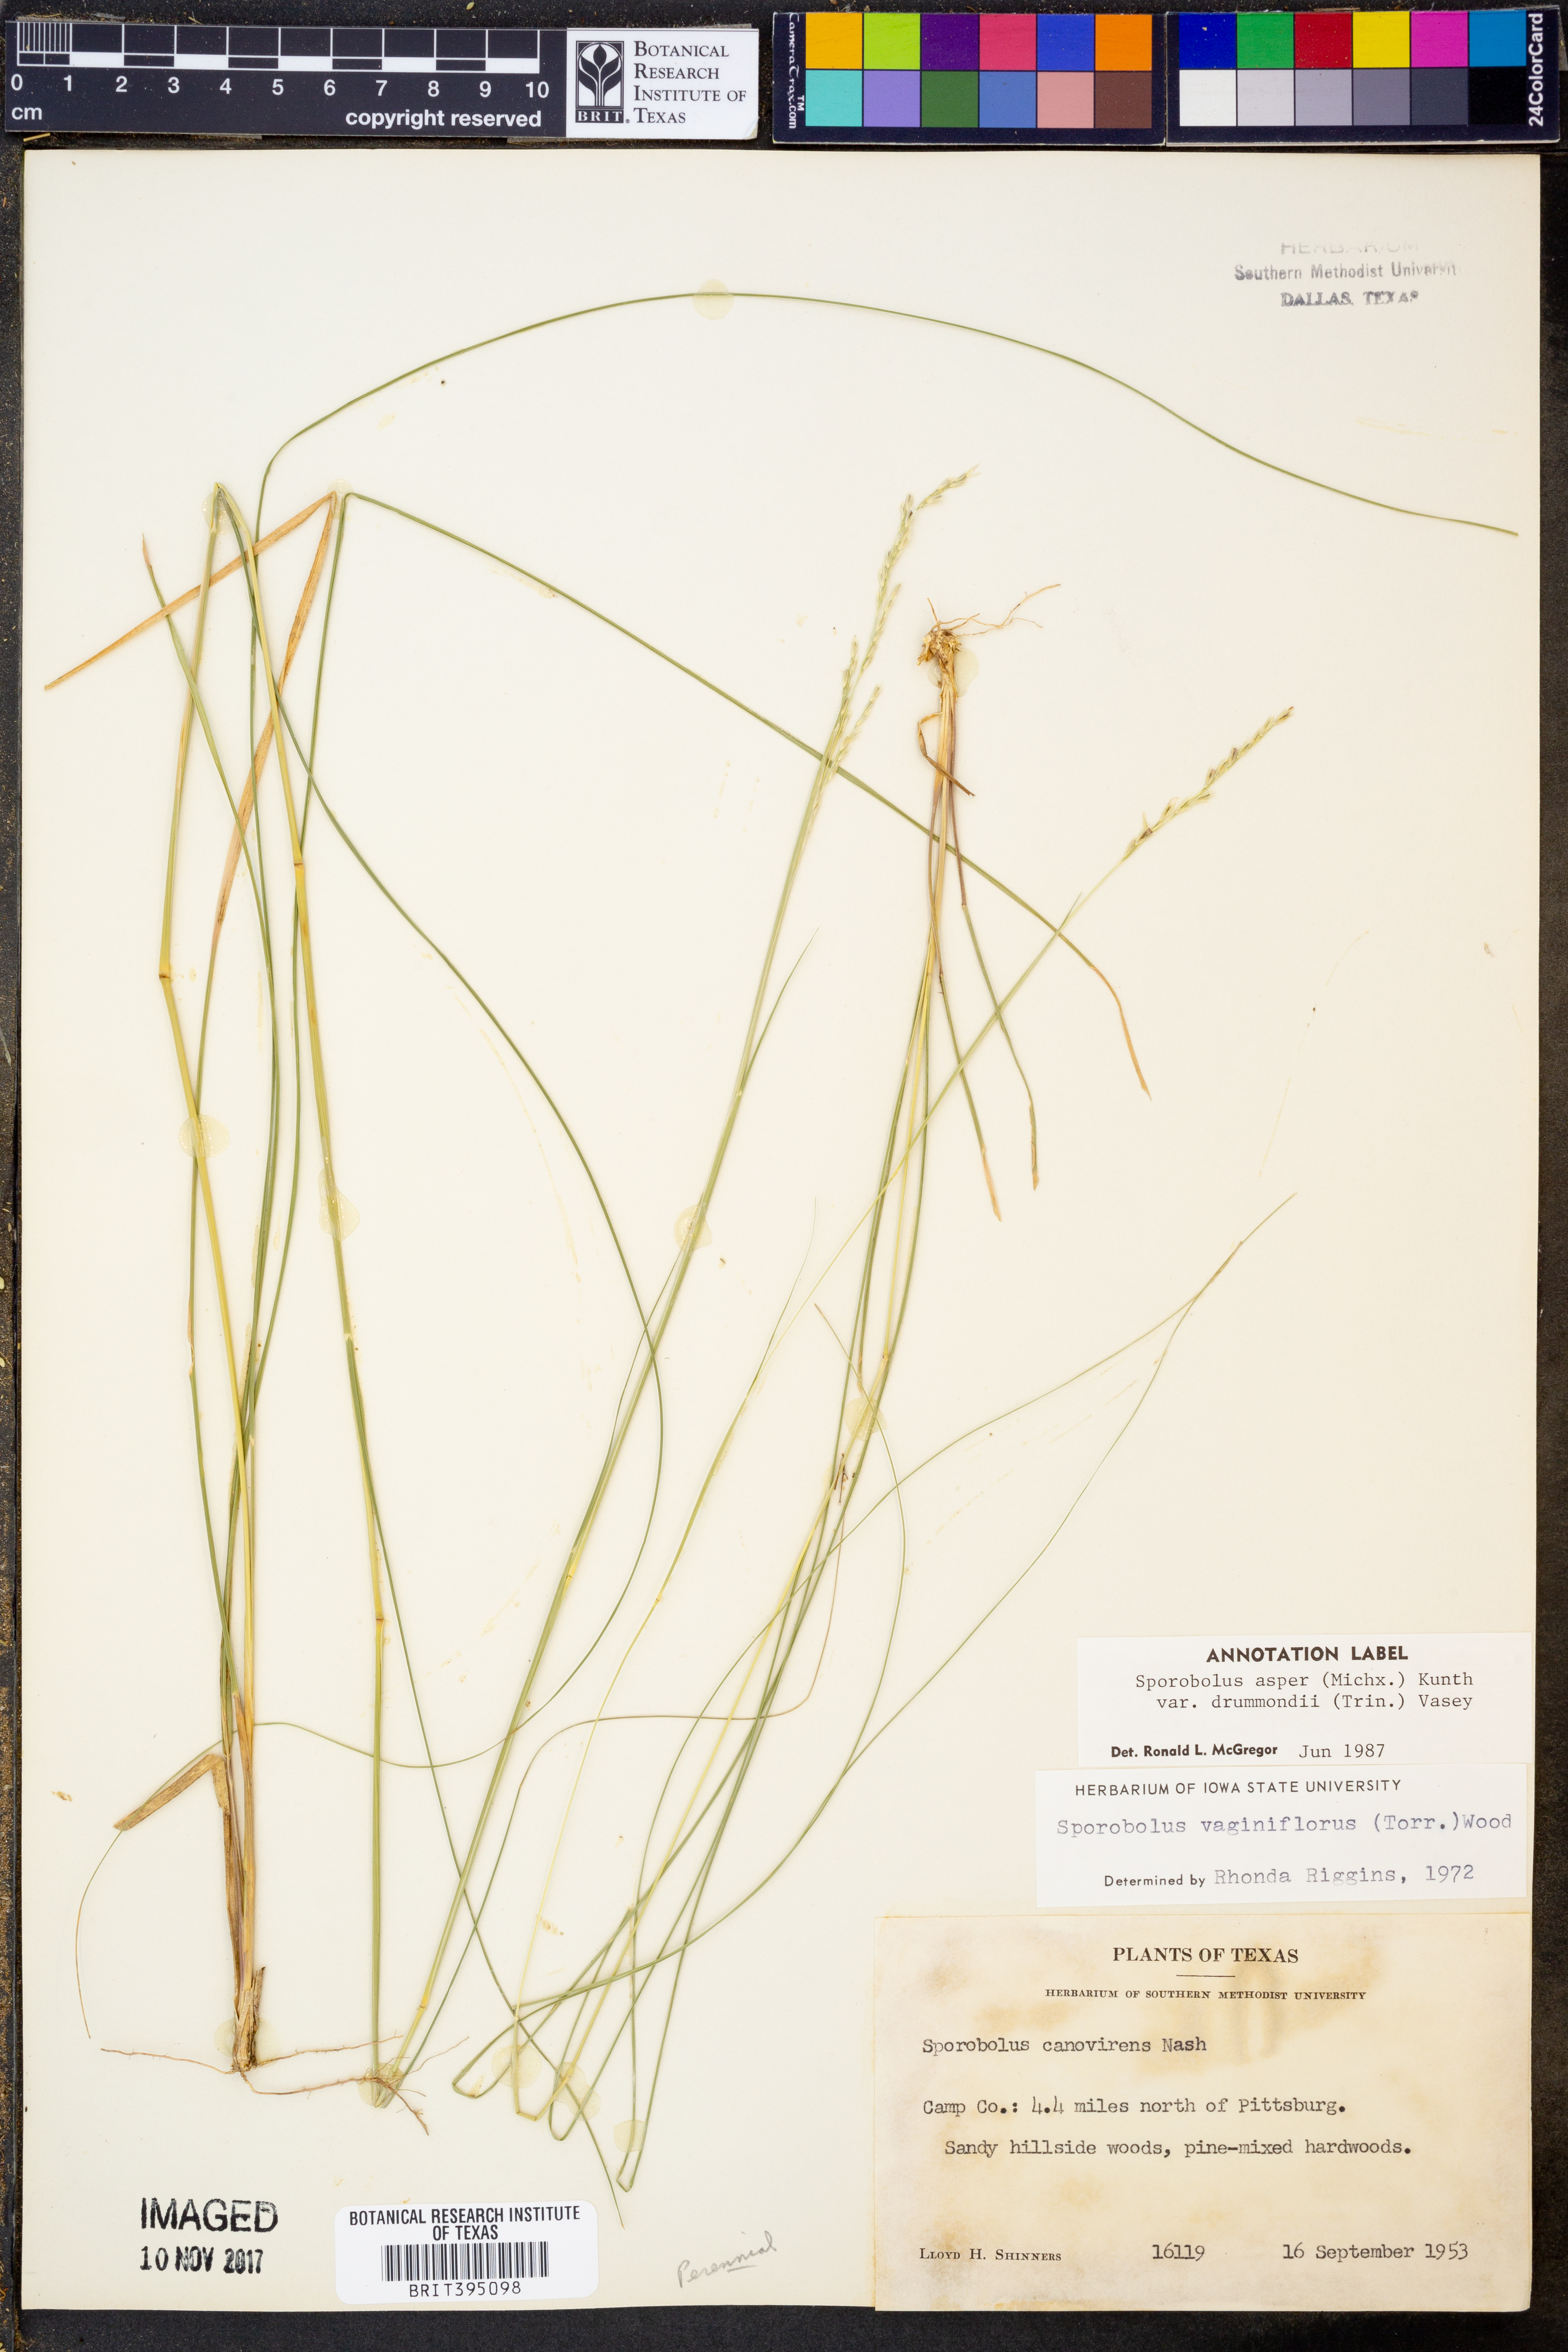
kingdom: Plantae
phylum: Tracheophyta
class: Liliopsida
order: Poales
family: Poaceae
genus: Sporobolus
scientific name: Sporobolus compositus
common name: Rough dropseed
